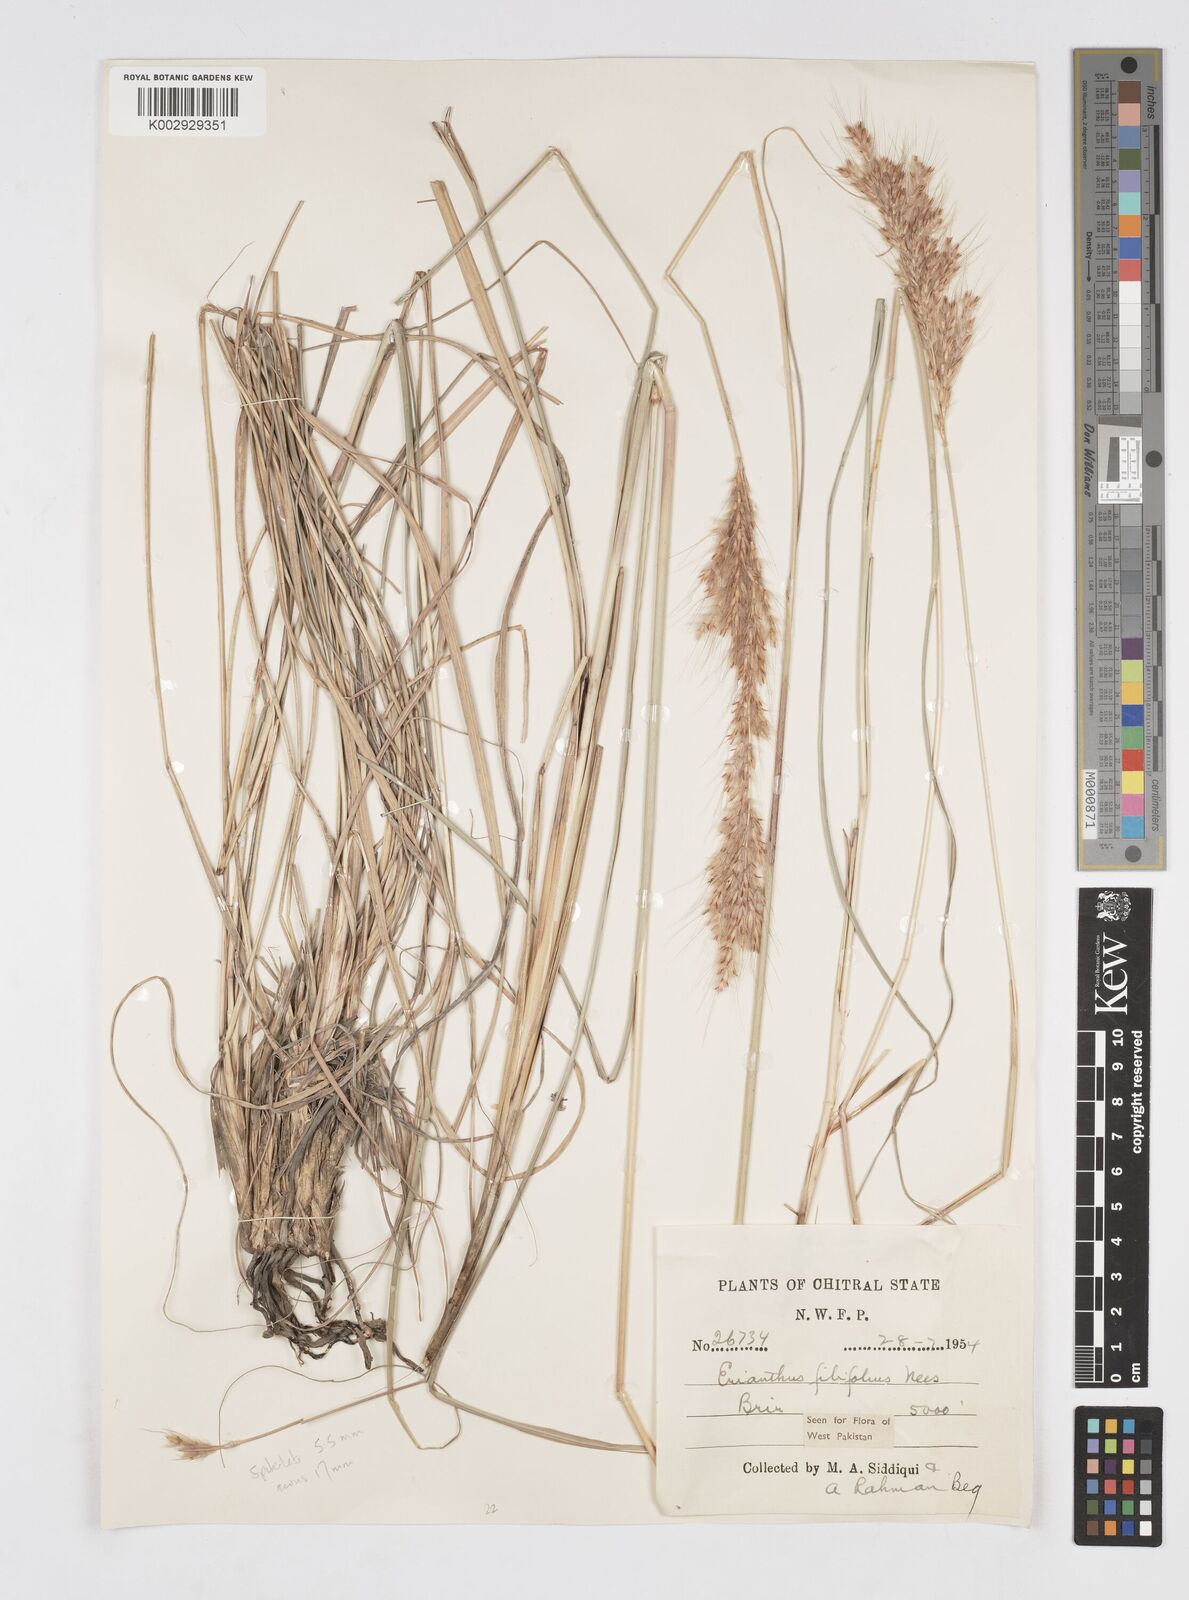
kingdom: Plantae
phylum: Tracheophyta
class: Liliopsida
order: Poales
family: Poaceae
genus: Saccharum
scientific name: Saccharum filifolium
